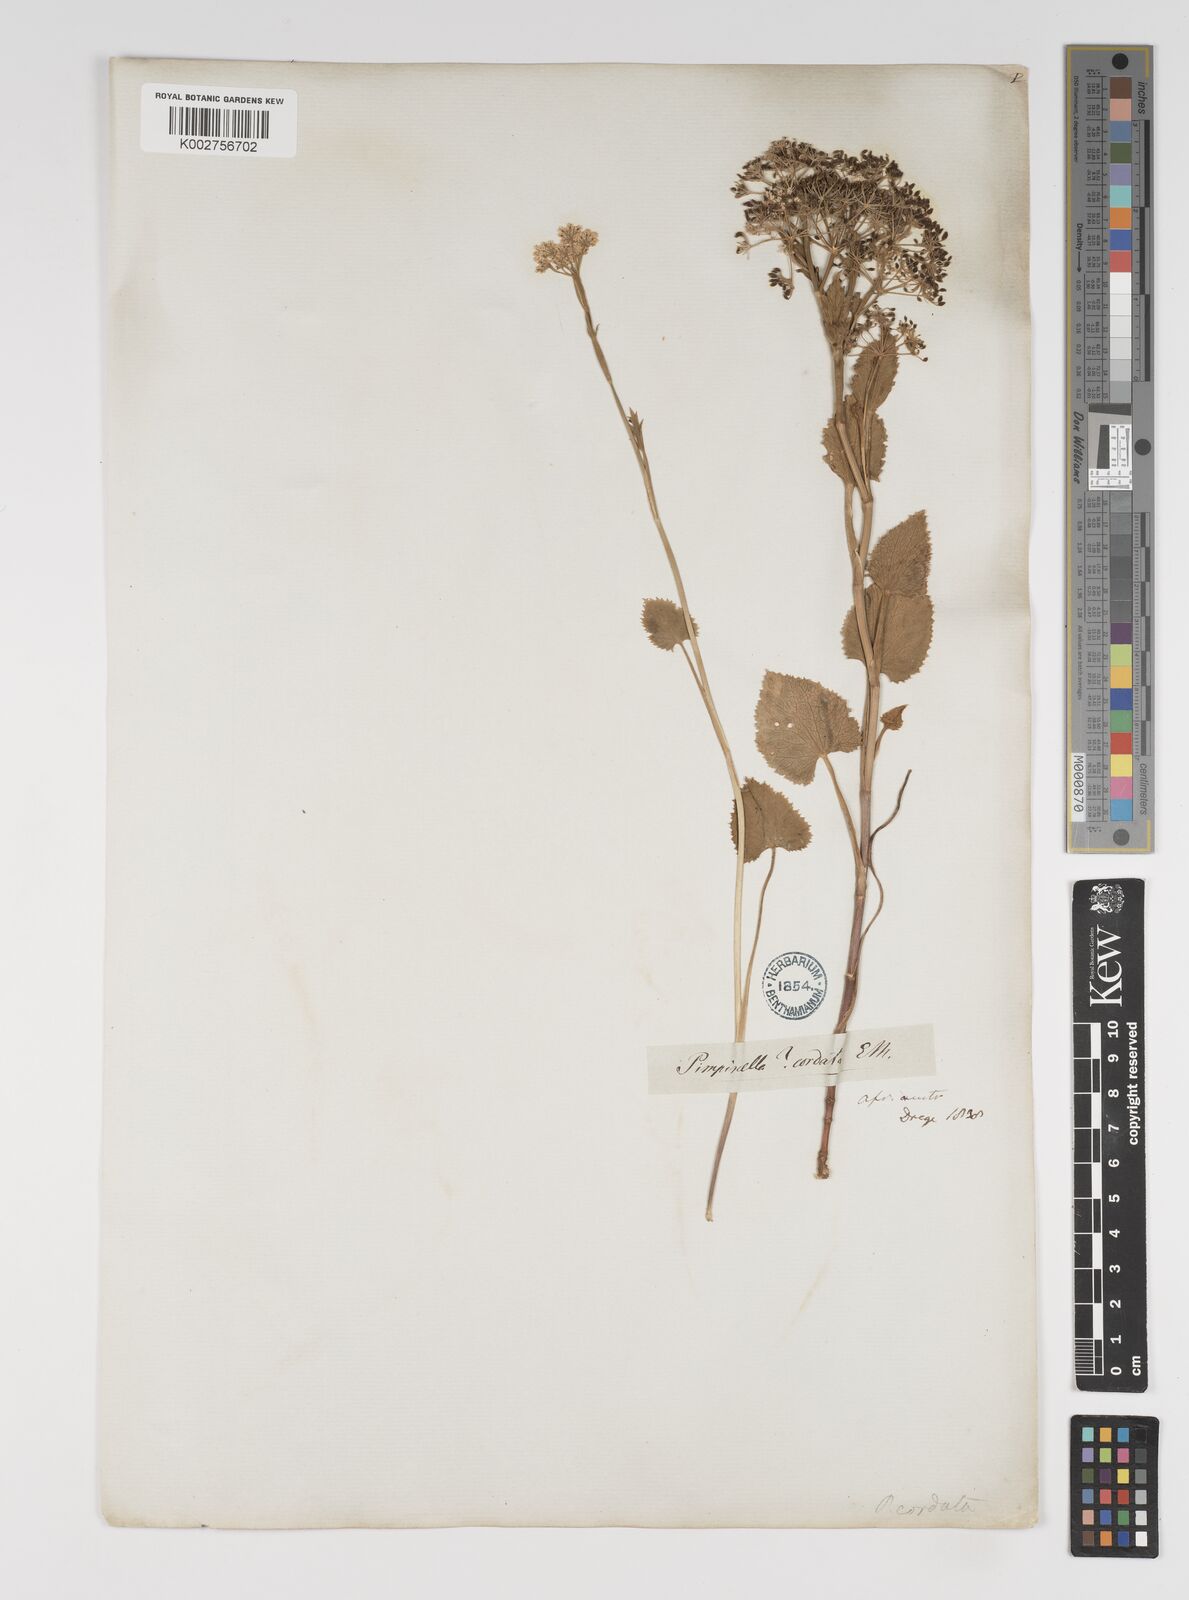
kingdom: Plantae
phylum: Tracheophyta
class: Magnoliopsida
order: Apiales
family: Apiaceae
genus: Pimpinella
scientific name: Pimpinella
